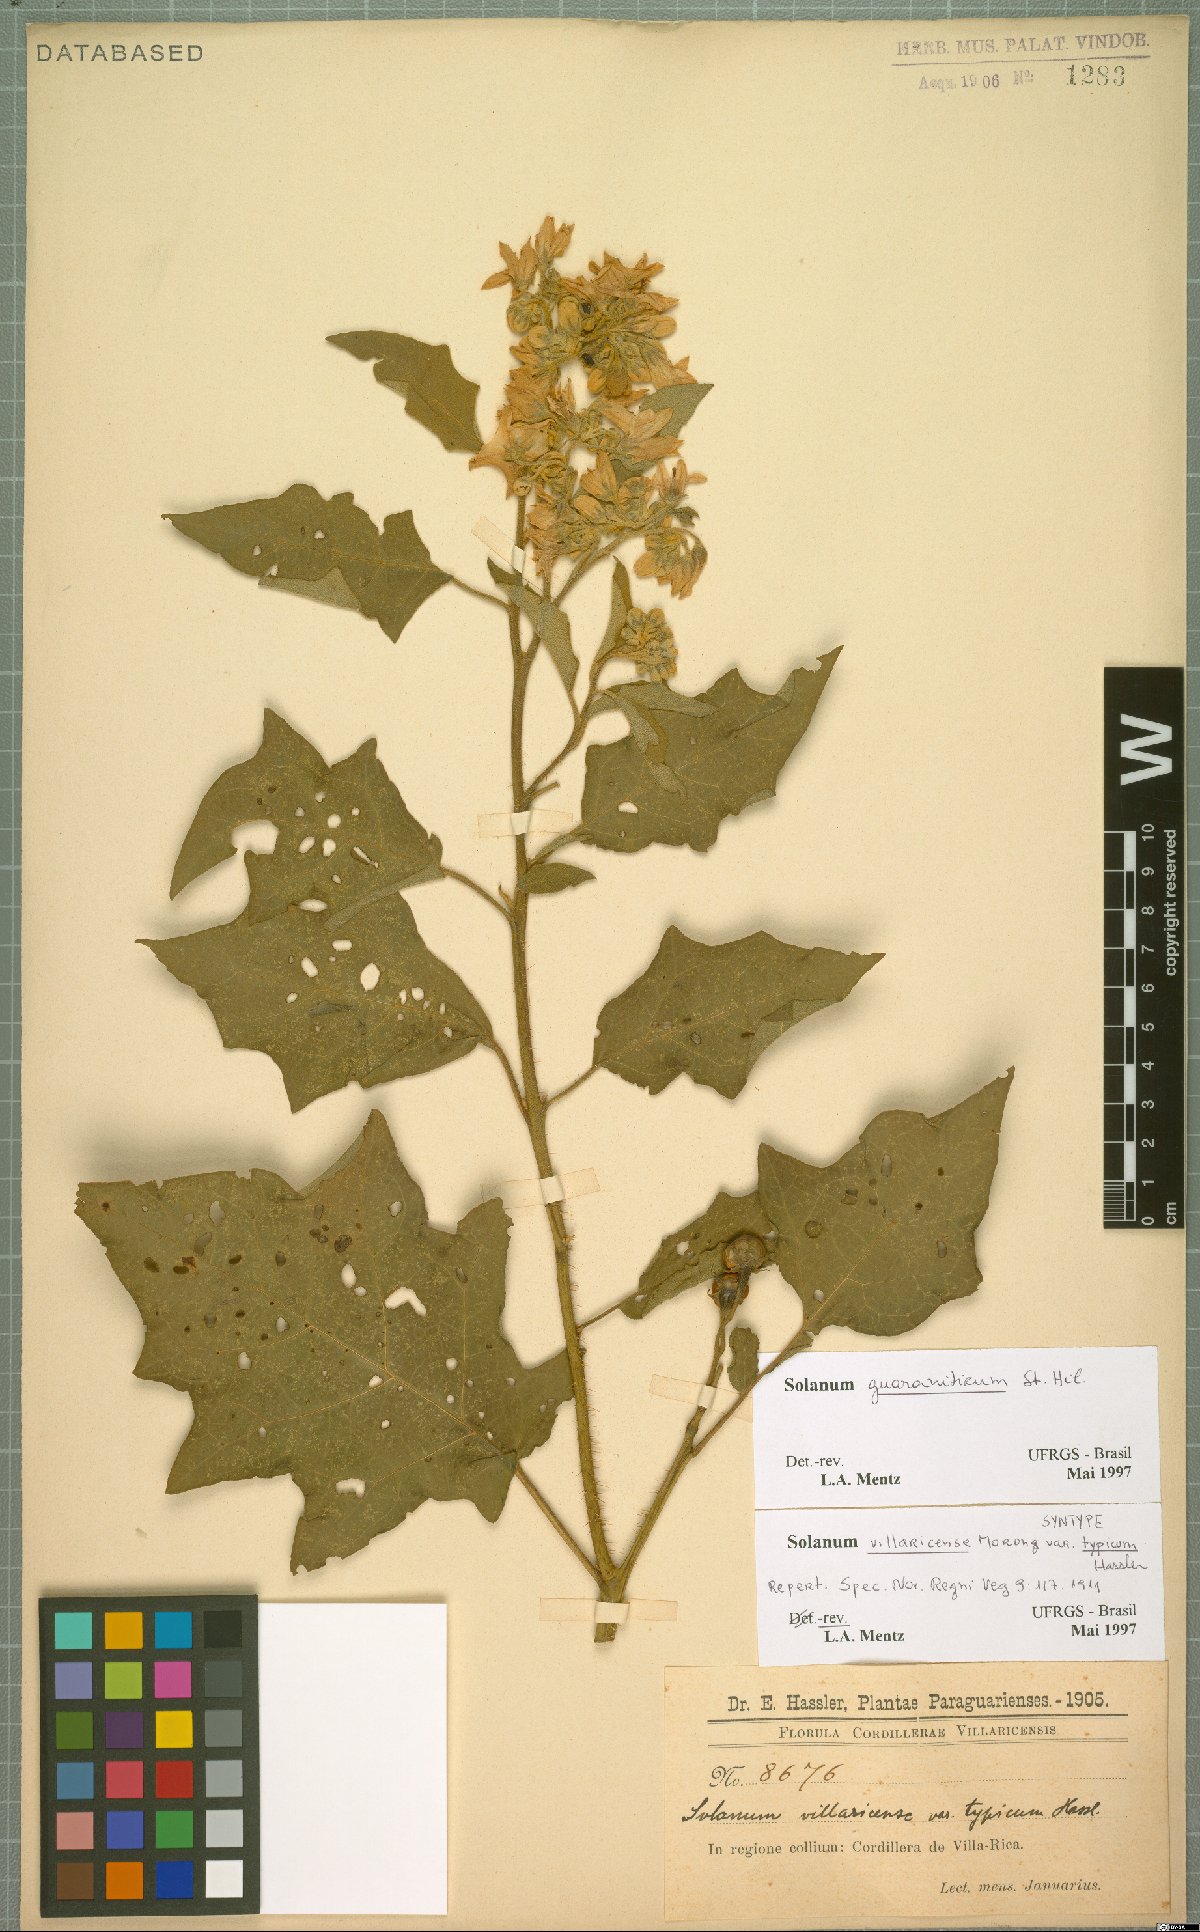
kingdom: Plantae
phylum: Tracheophyta
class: Magnoliopsida
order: Solanales
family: Solanaceae
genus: Solanum
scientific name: Solanum guaraniticum
